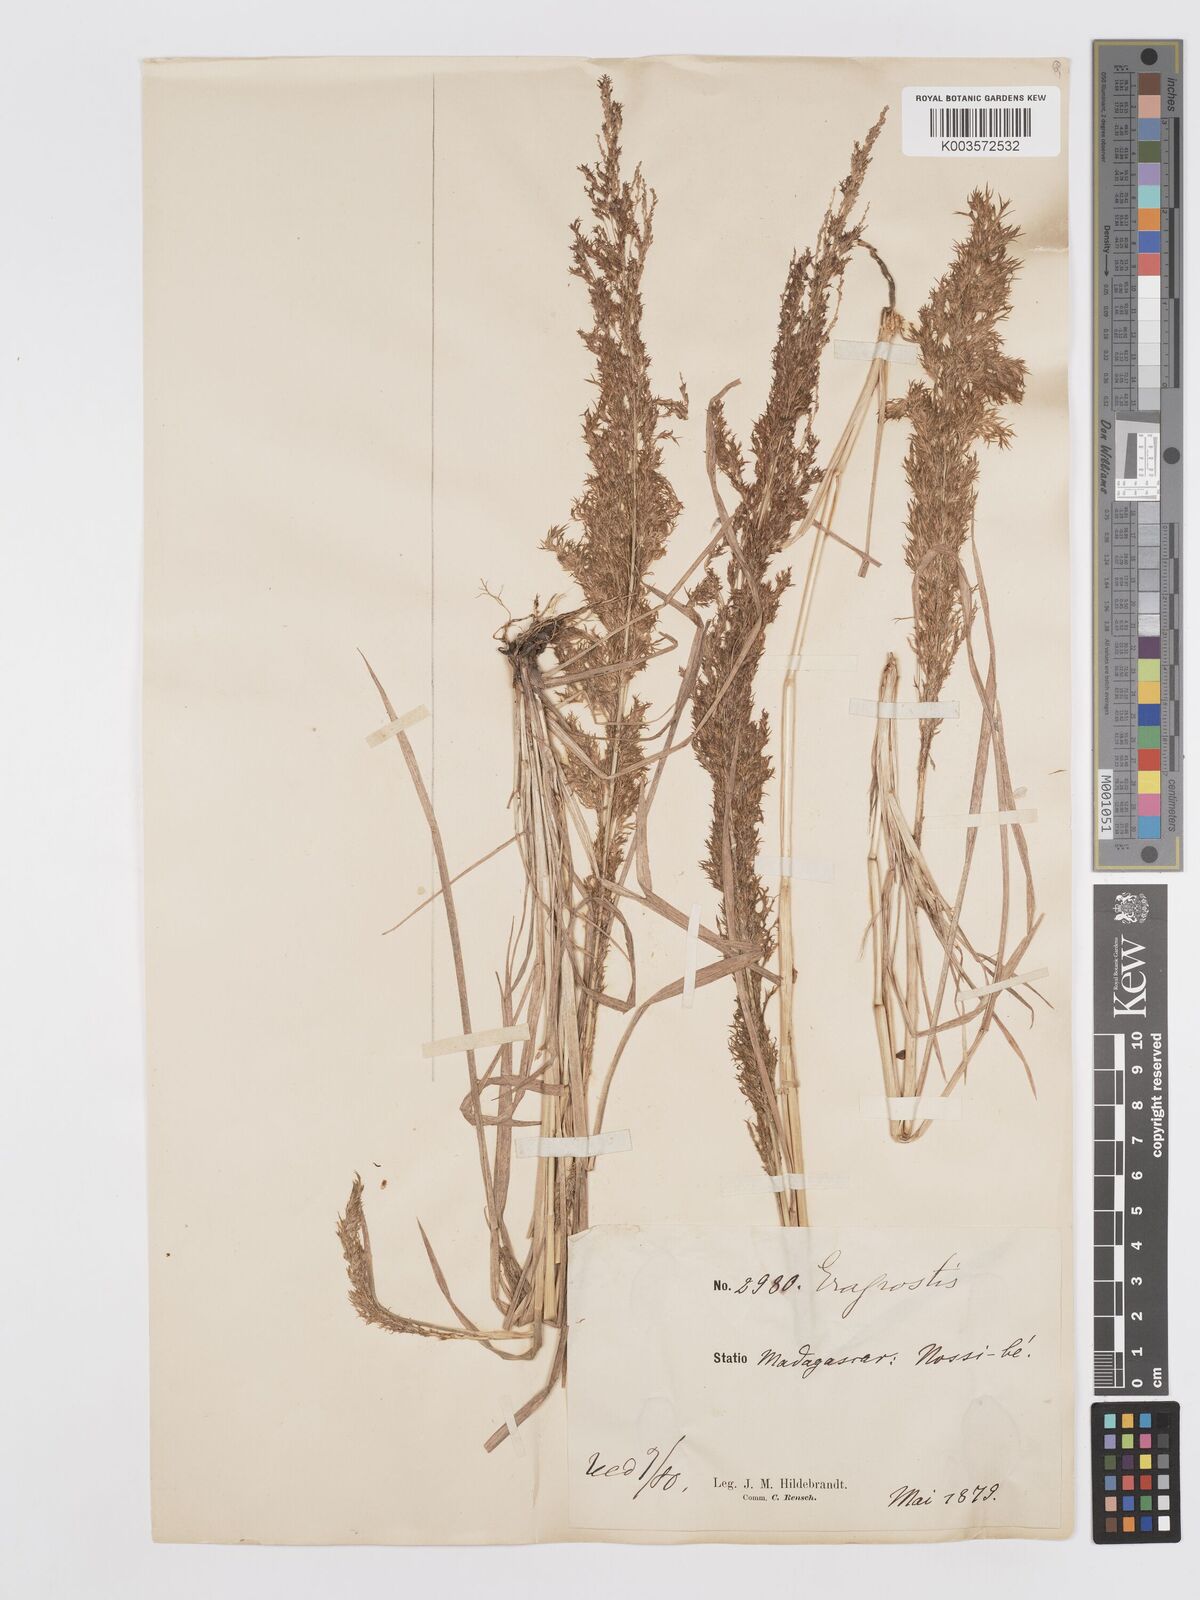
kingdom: Plantae
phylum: Tracheophyta
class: Liliopsida
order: Poales
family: Poaceae
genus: Eragrostis
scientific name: Eragrostis japonica
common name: Pond lovegrass
